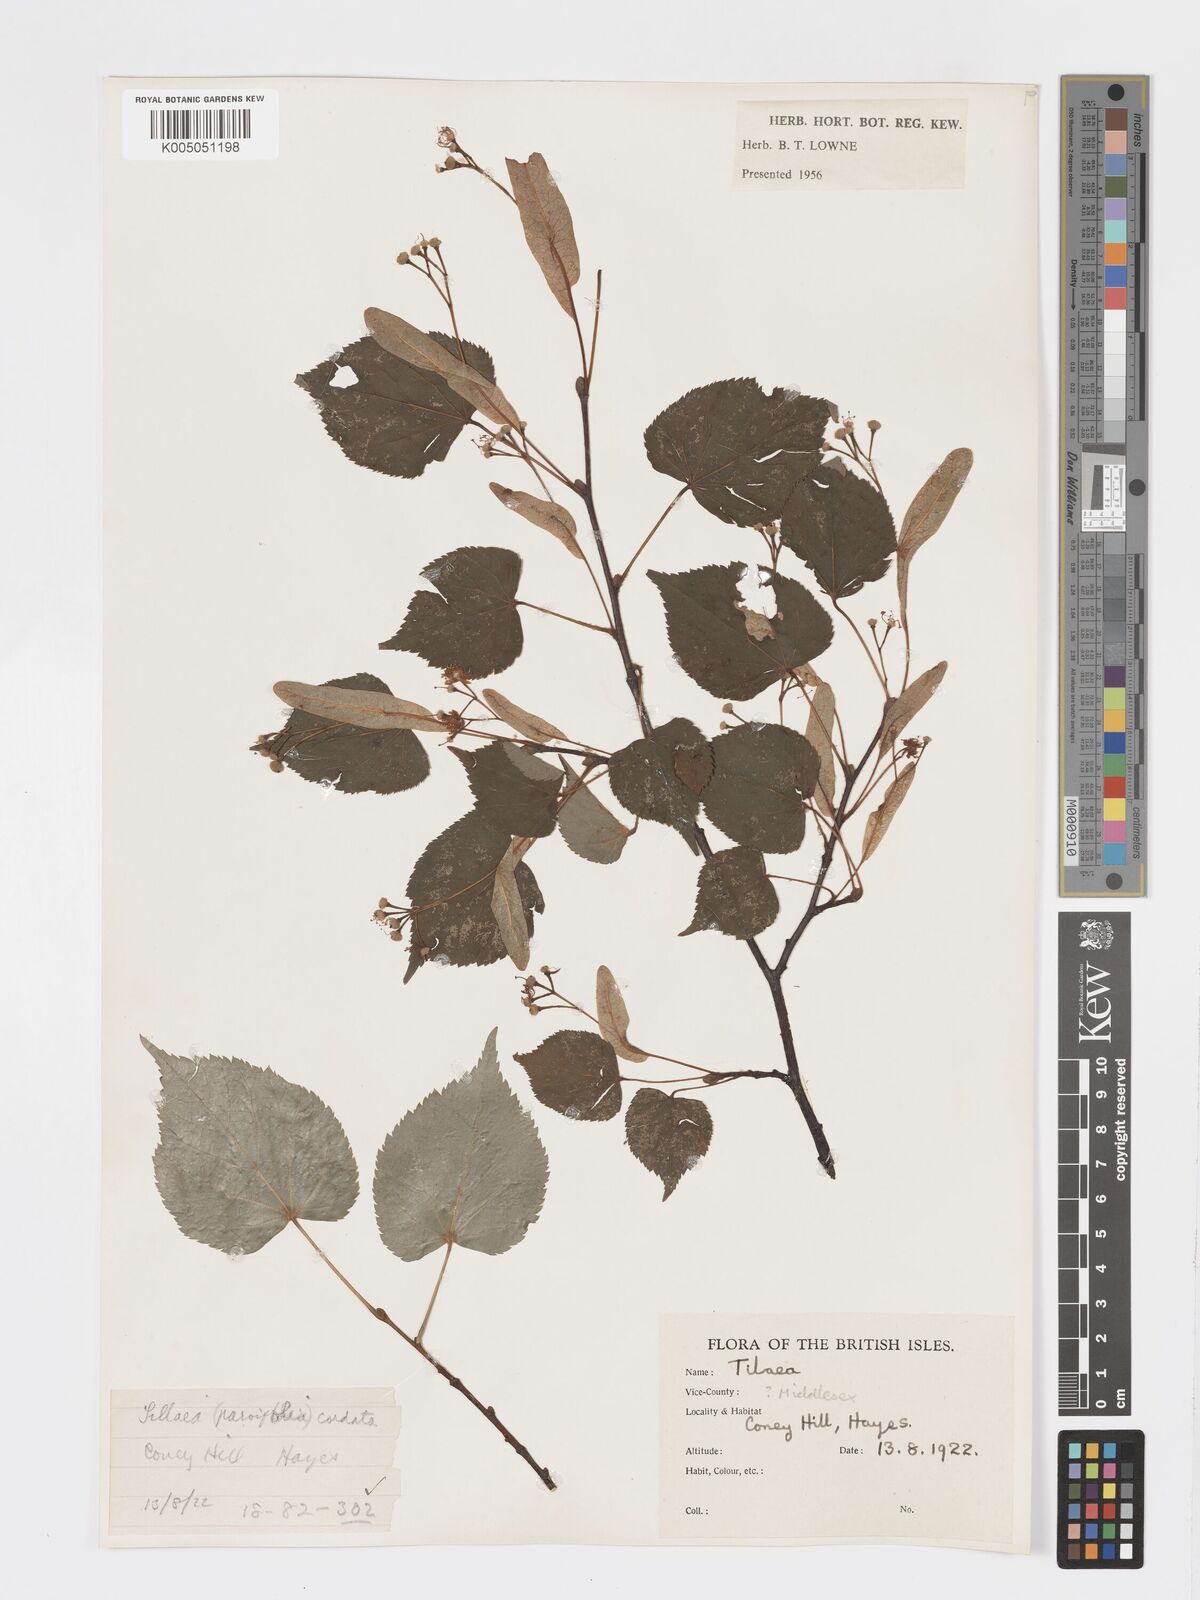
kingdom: Plantae
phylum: Tracheophyta
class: Magnoliopsida
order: Malvales
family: Malvaceae
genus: Tilia
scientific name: Tilia
